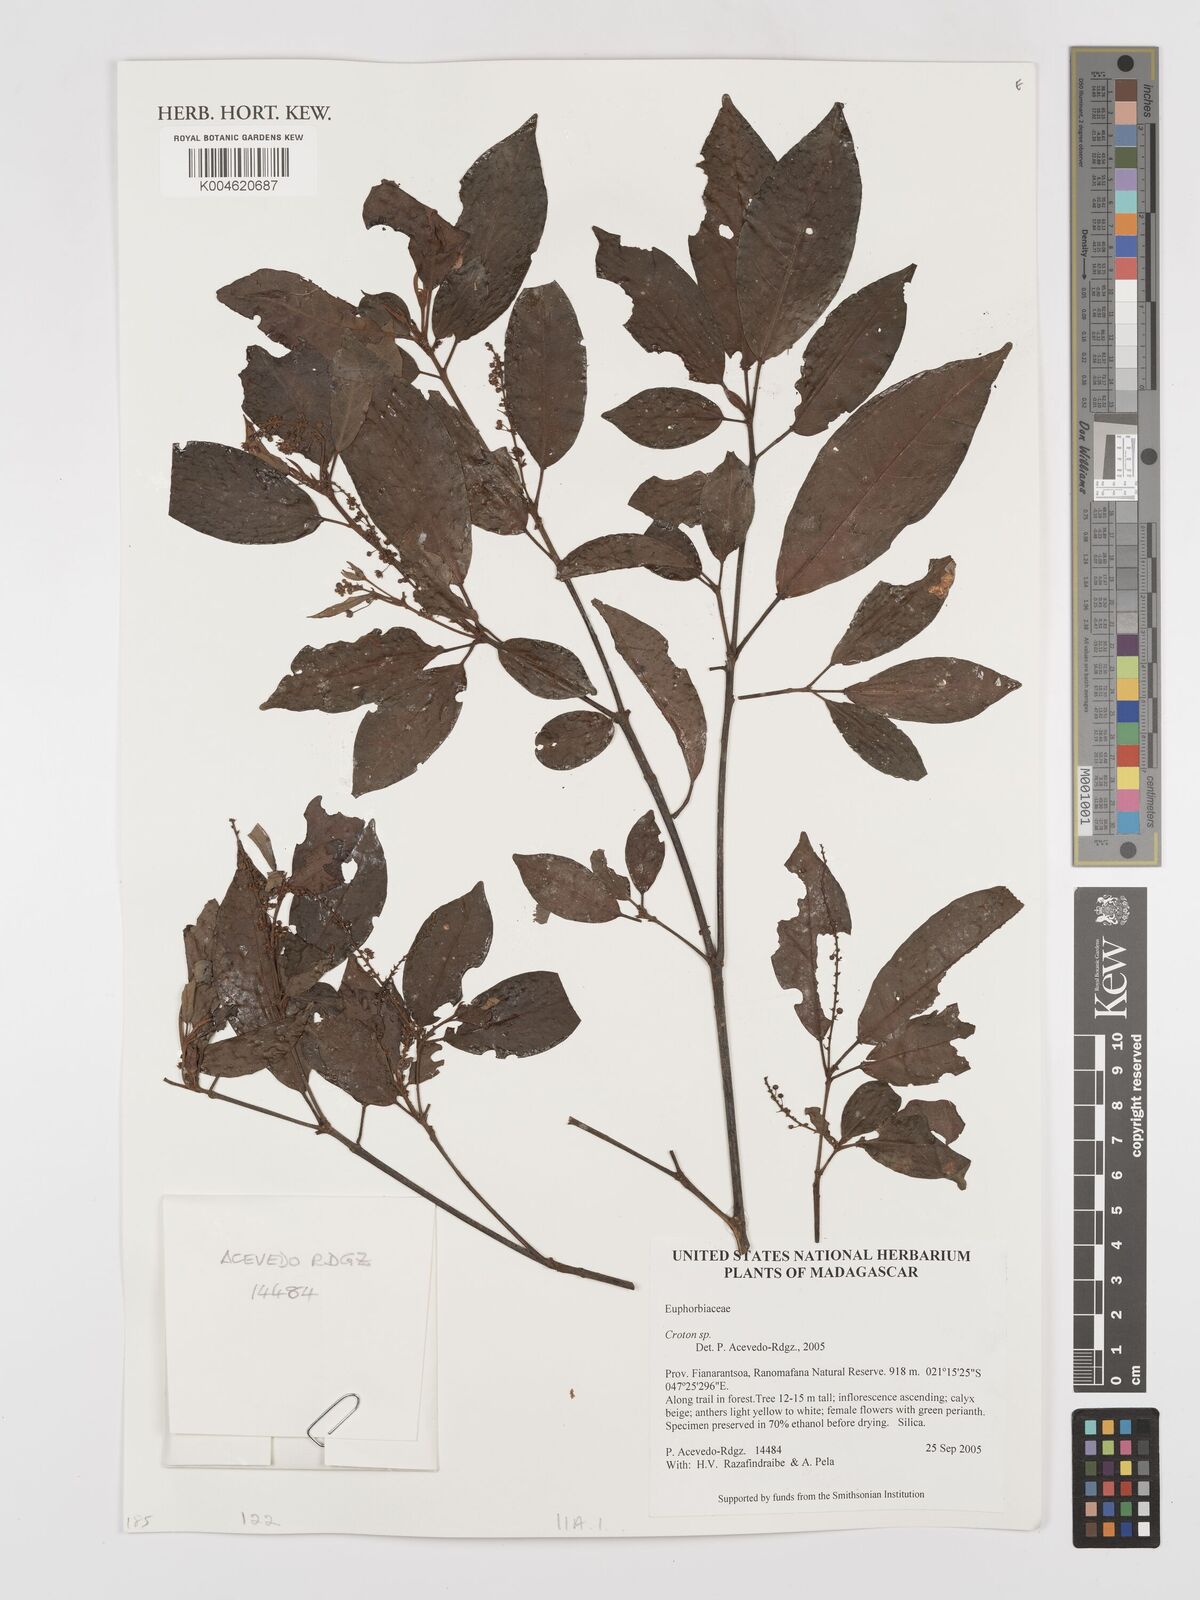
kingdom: Plantae
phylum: Tracheophyta
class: Magnoliopsida
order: Malpighiales
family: Euphorbiaceae
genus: Croton
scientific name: Croton
